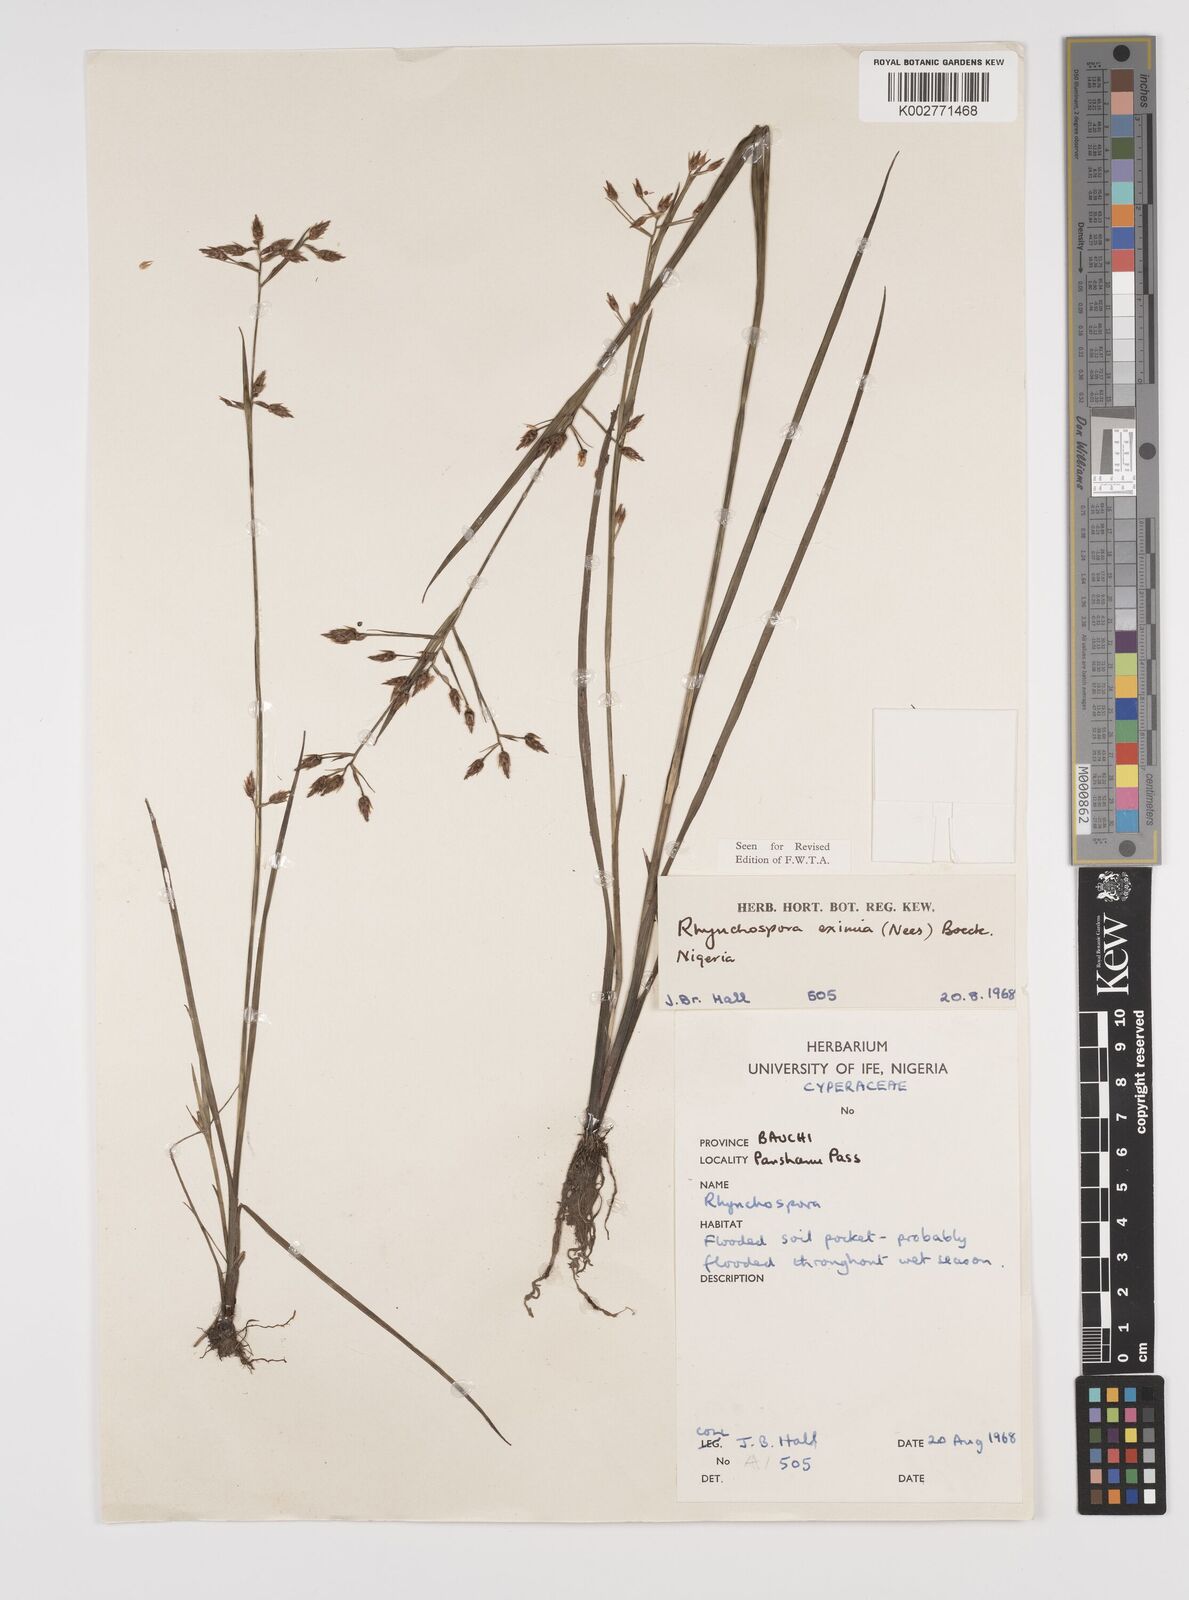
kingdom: Plantae
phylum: Tracheophyta
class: Liliopsida
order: Poales
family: Cyperaceae
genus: Rhynchospora
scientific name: Rhynchospora eximia
